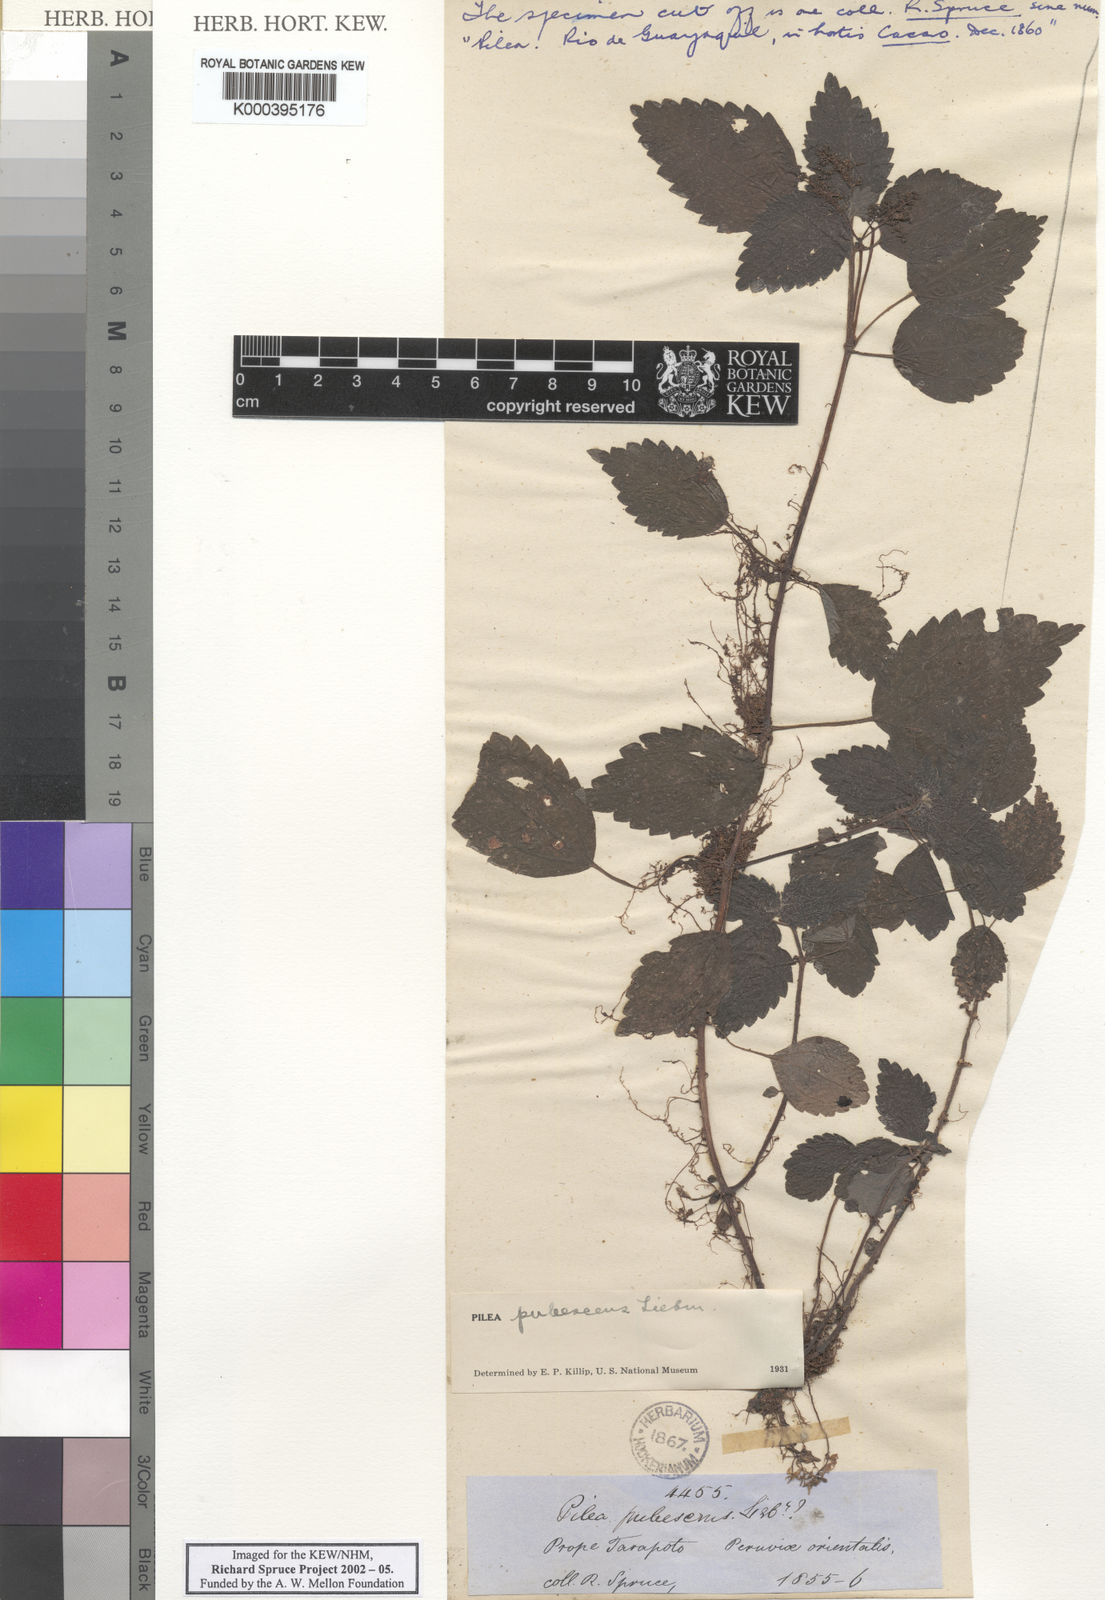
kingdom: Plantae
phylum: Tracheophyta
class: Magnoliopsida
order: Rosales
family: Urticaceae
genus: Pilea
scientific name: Pilea pubescens
